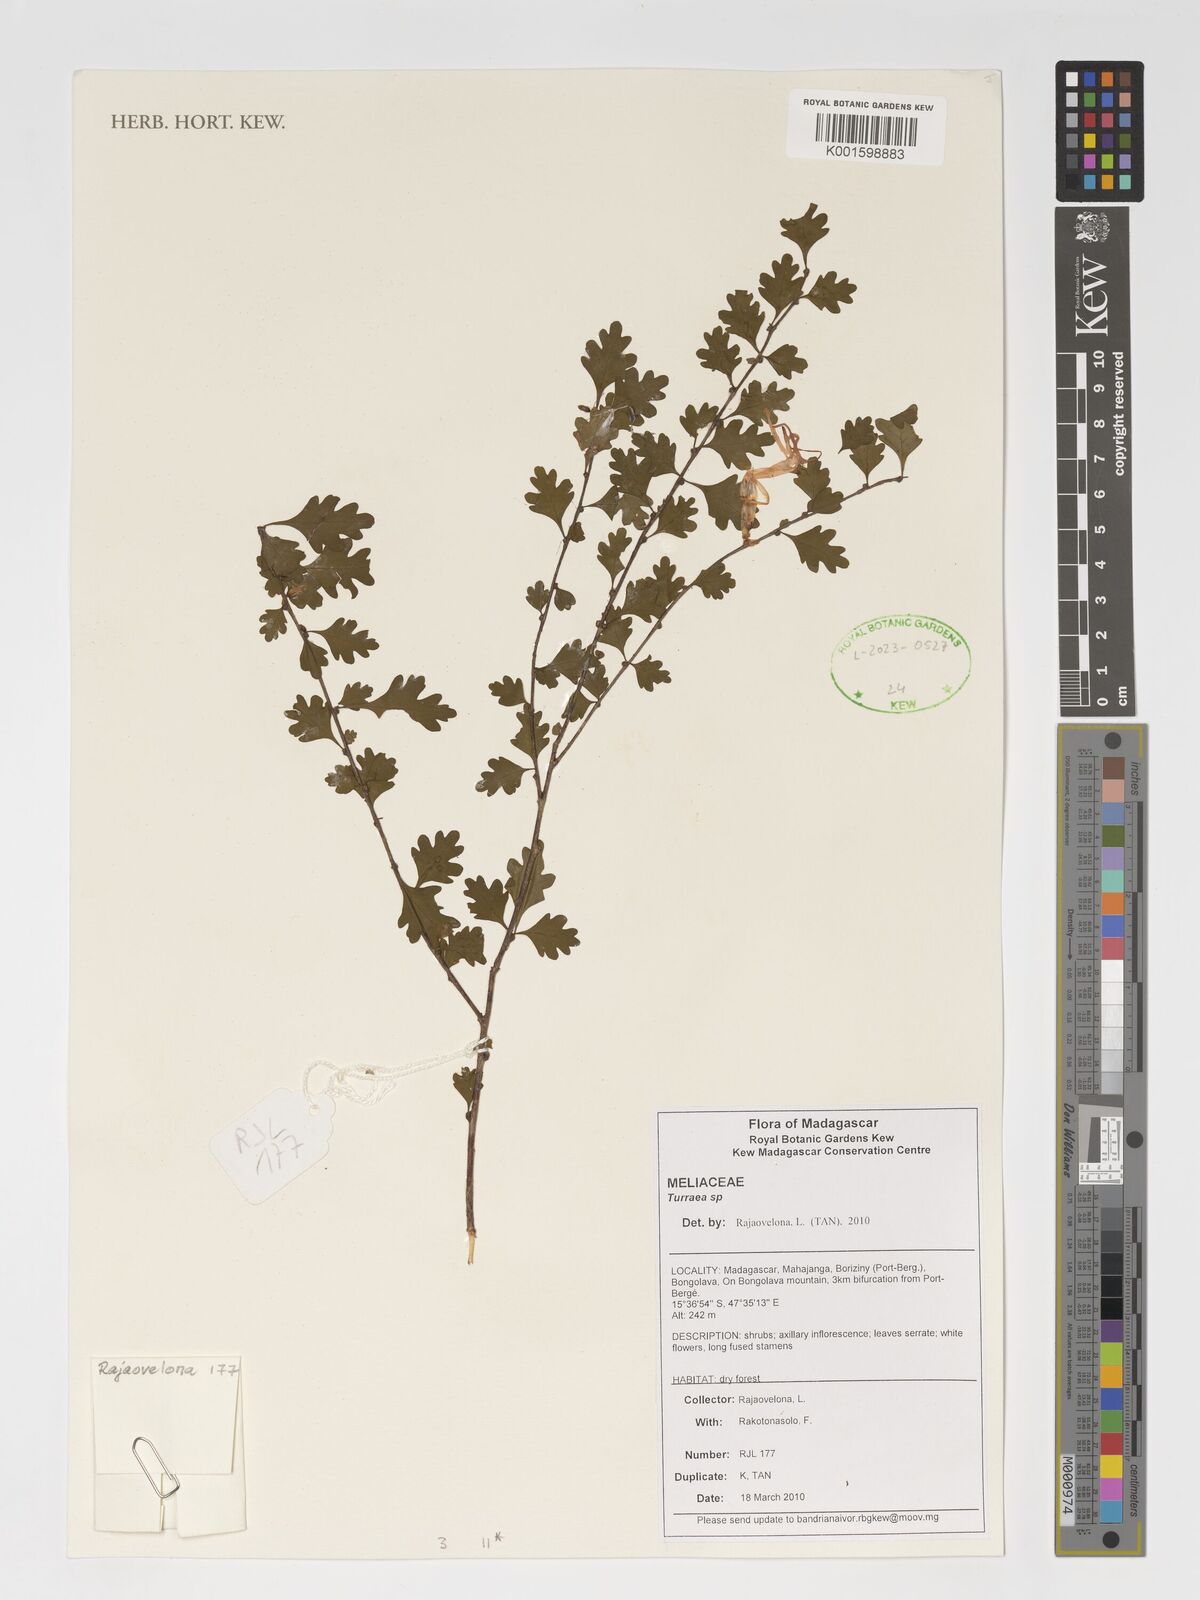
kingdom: Plantae
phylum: Tracheophyta
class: Magnoliopsida
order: Sapindales
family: Meliaceae
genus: Turraea
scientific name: Turraea
